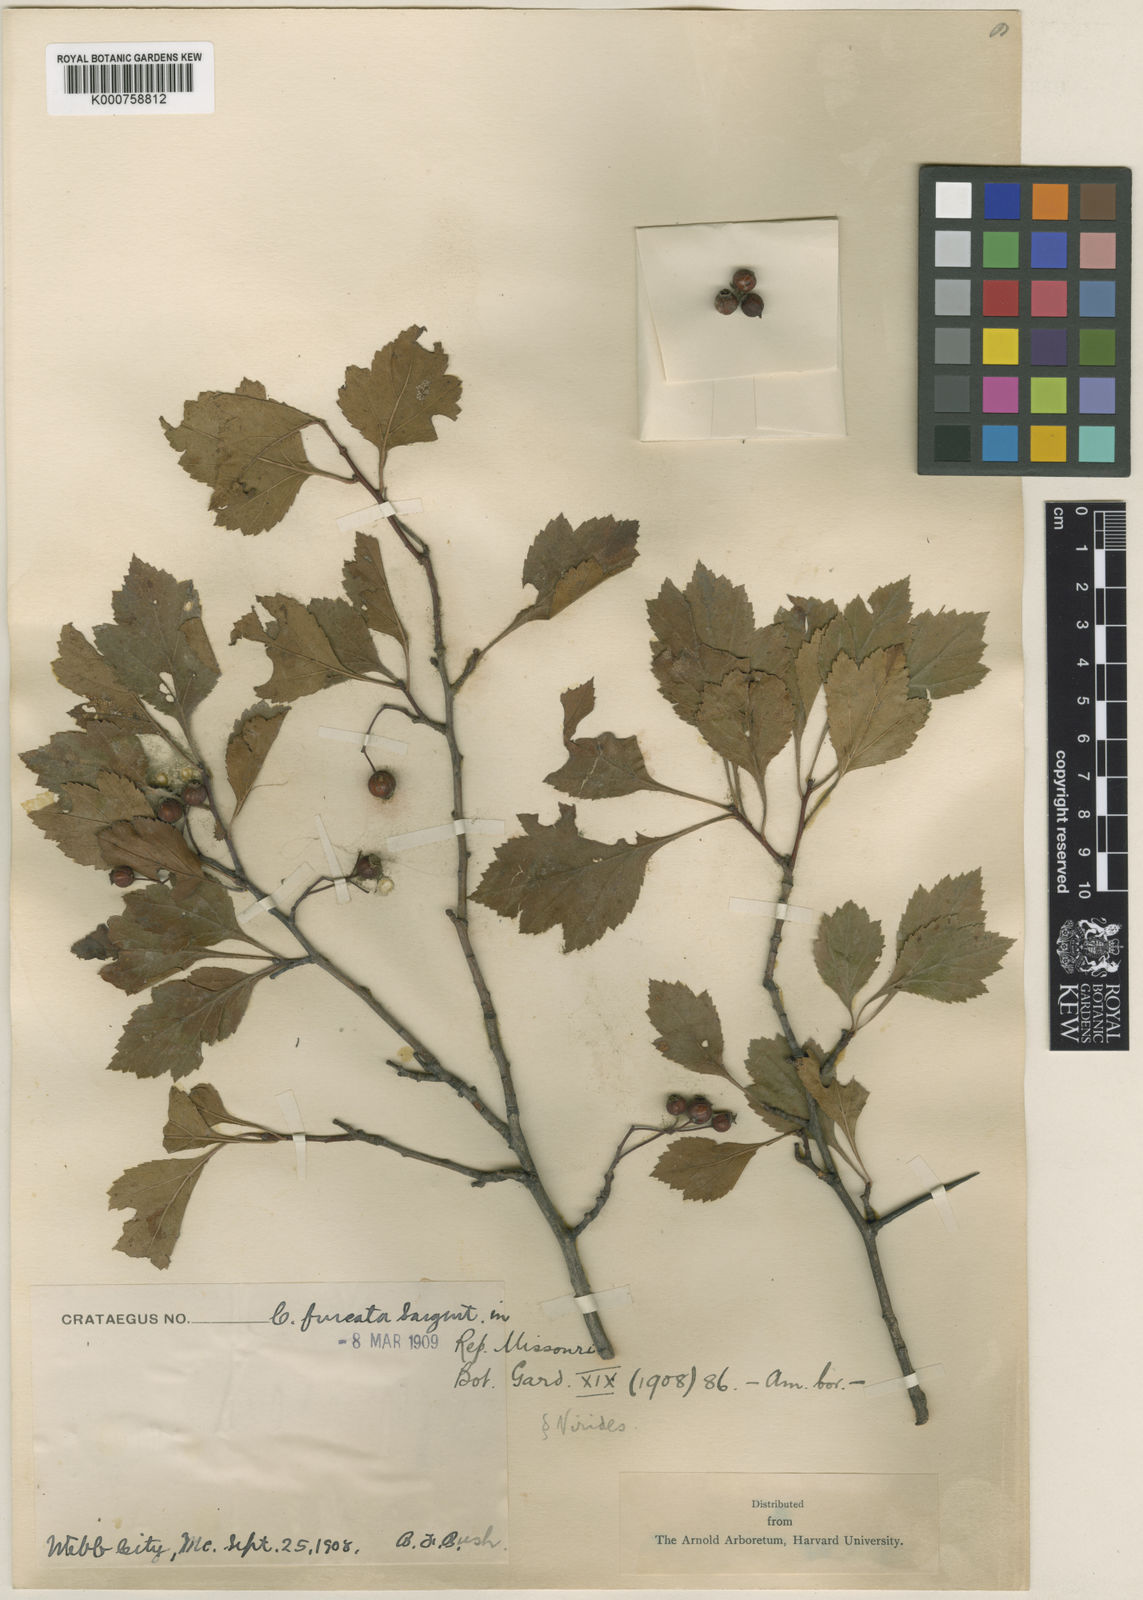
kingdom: Plantae
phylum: Tracheophyta
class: Magnoliopsida
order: Rosales
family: Rosaceae
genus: Crataegus
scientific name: Crataegus viridis
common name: Southernthorn
